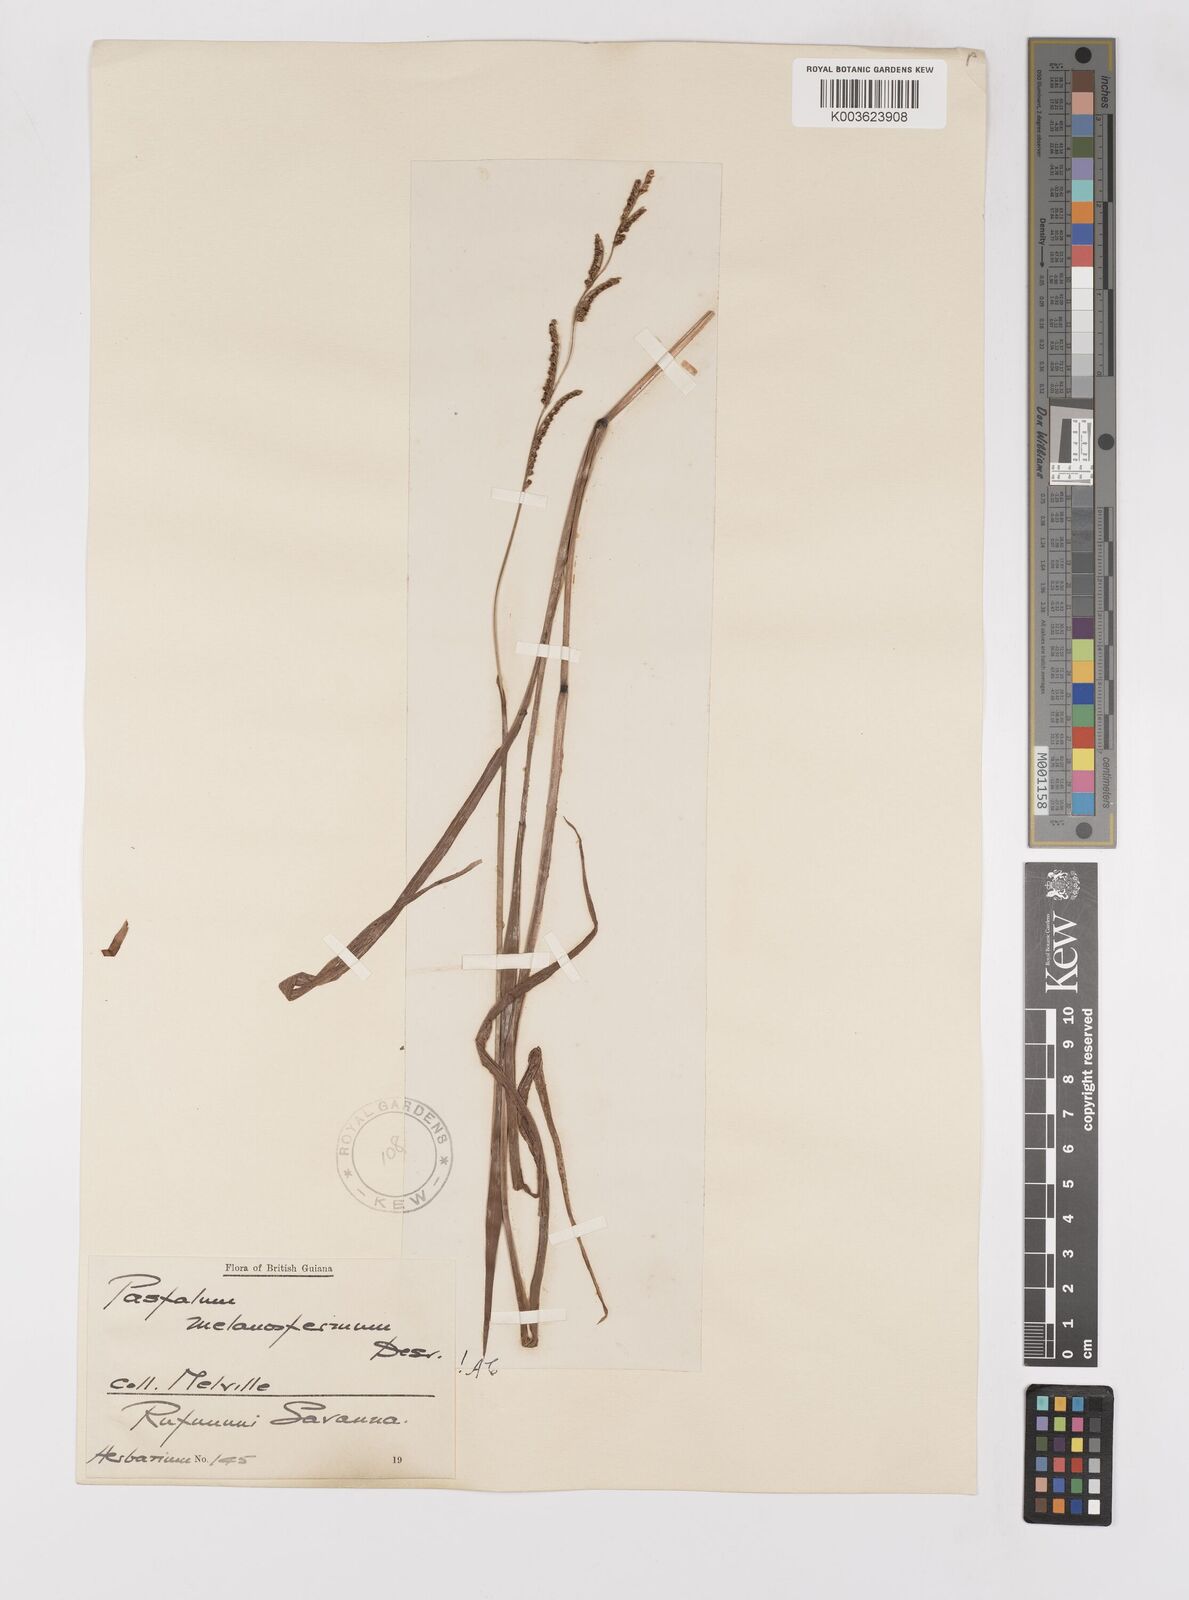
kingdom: Plantae
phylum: Tracheophyta
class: Liliopsida
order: Poales
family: Poaceae
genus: Paspalum
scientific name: Paspalum melanospermum
